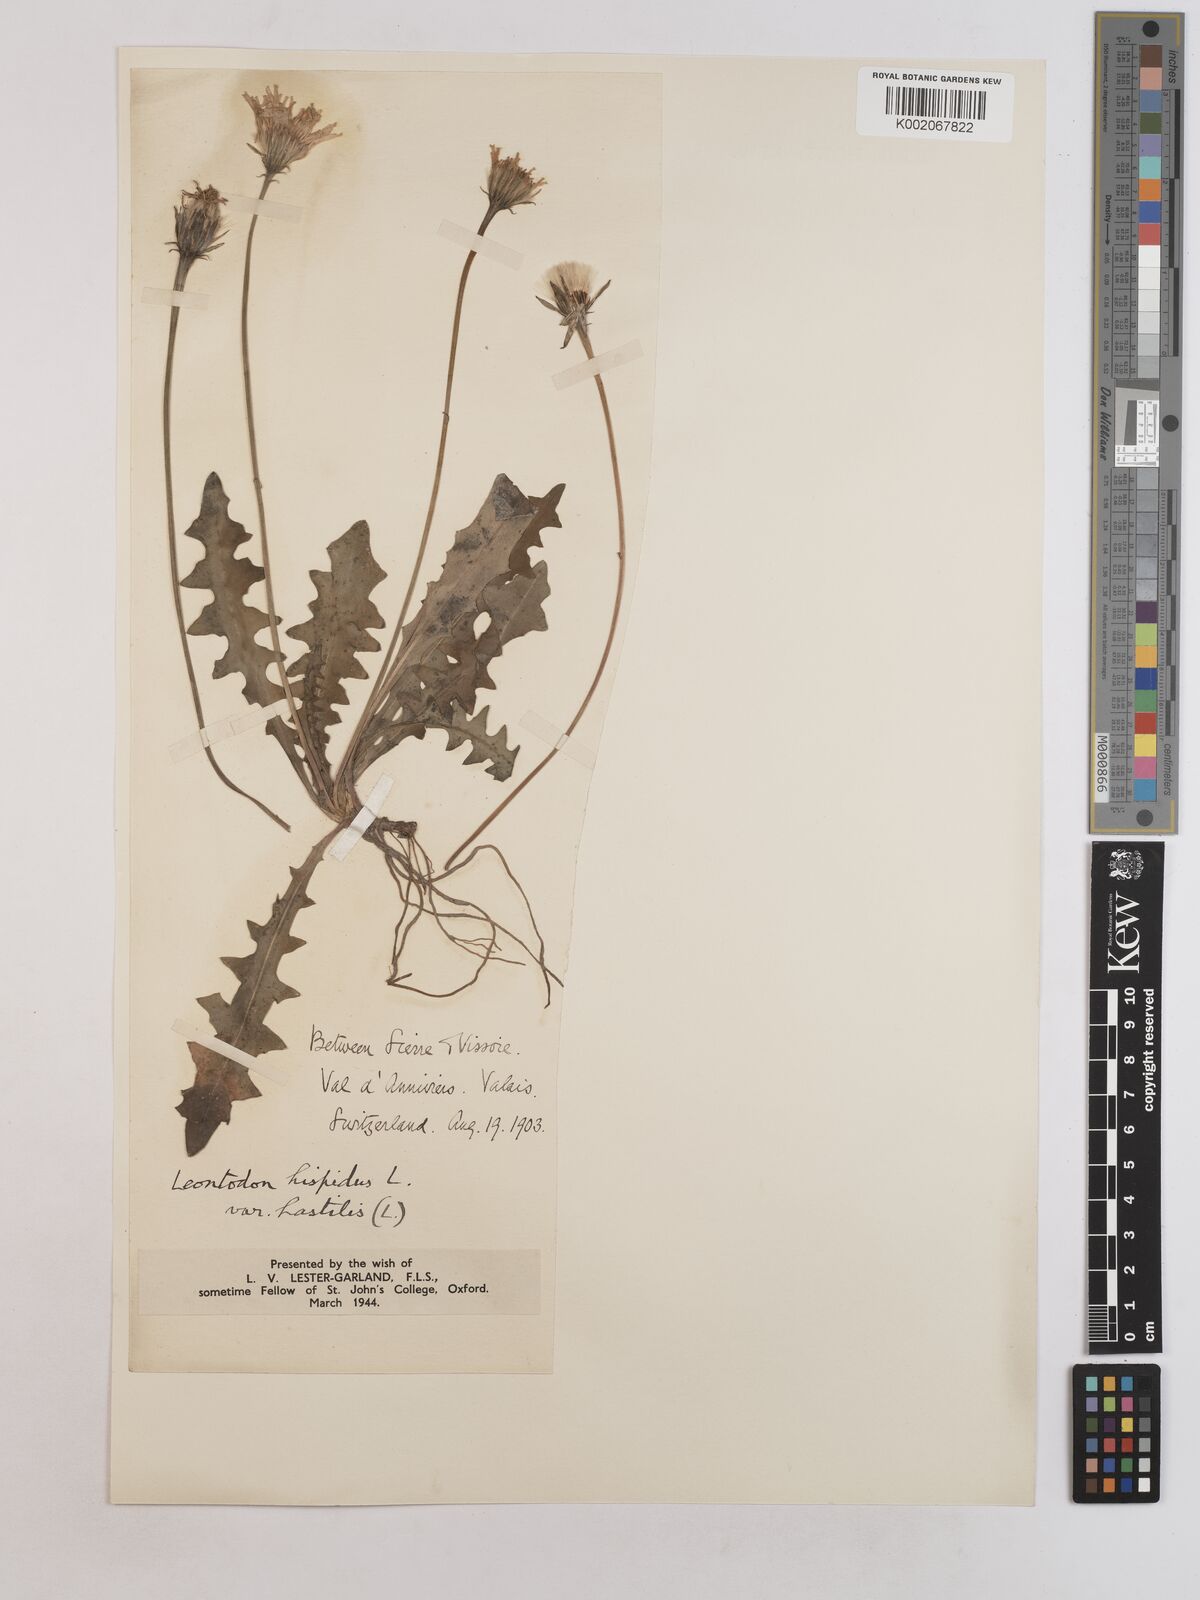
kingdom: Plantae
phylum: Tracheophyta
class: Magnoliopsida
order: Asterales
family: Asteraceae
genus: Leontodon
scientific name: Leontodon hispidus
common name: Rough hawkbit
